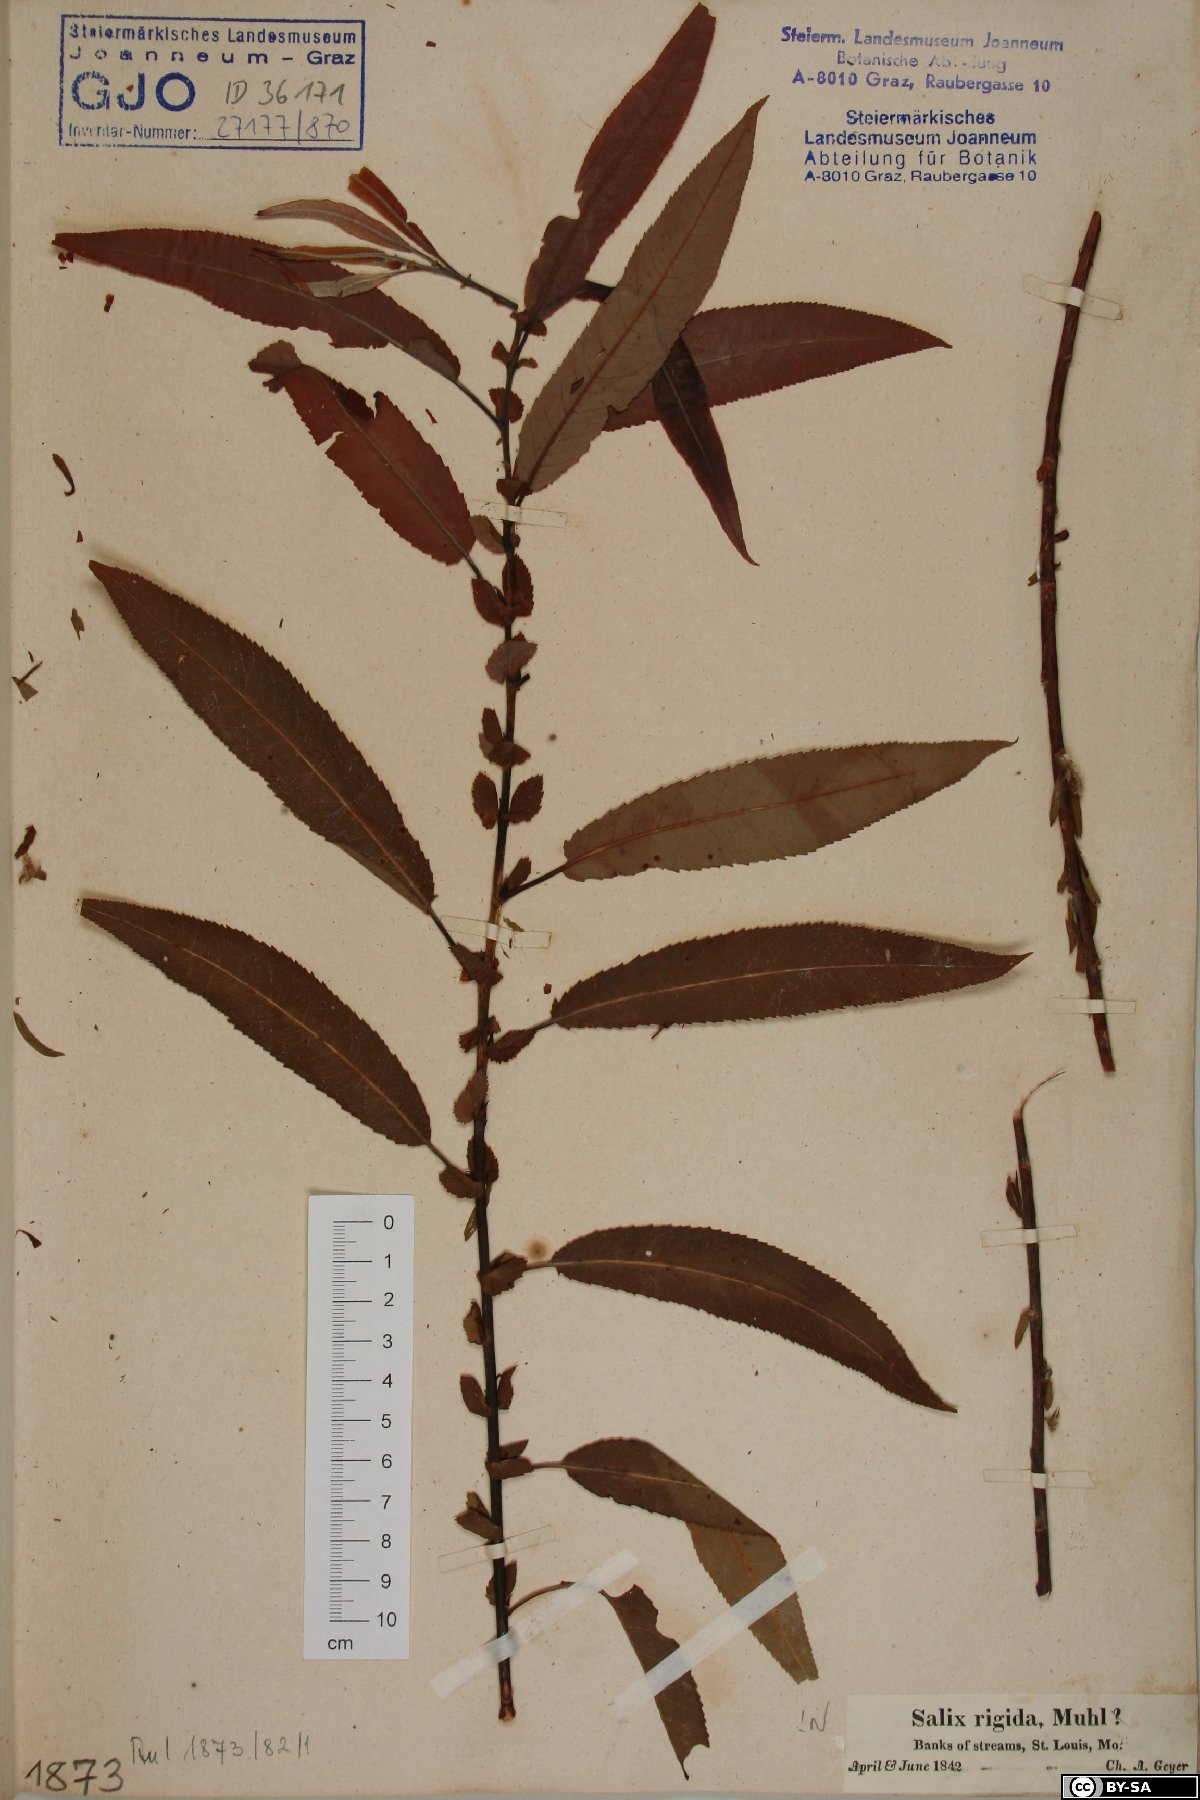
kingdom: Plantae
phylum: Tracheophyta
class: Magnoliopsida
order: Malpighiales
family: Salicaceae
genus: Salix
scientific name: Salix eriocephala
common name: Heart-leaved willow
